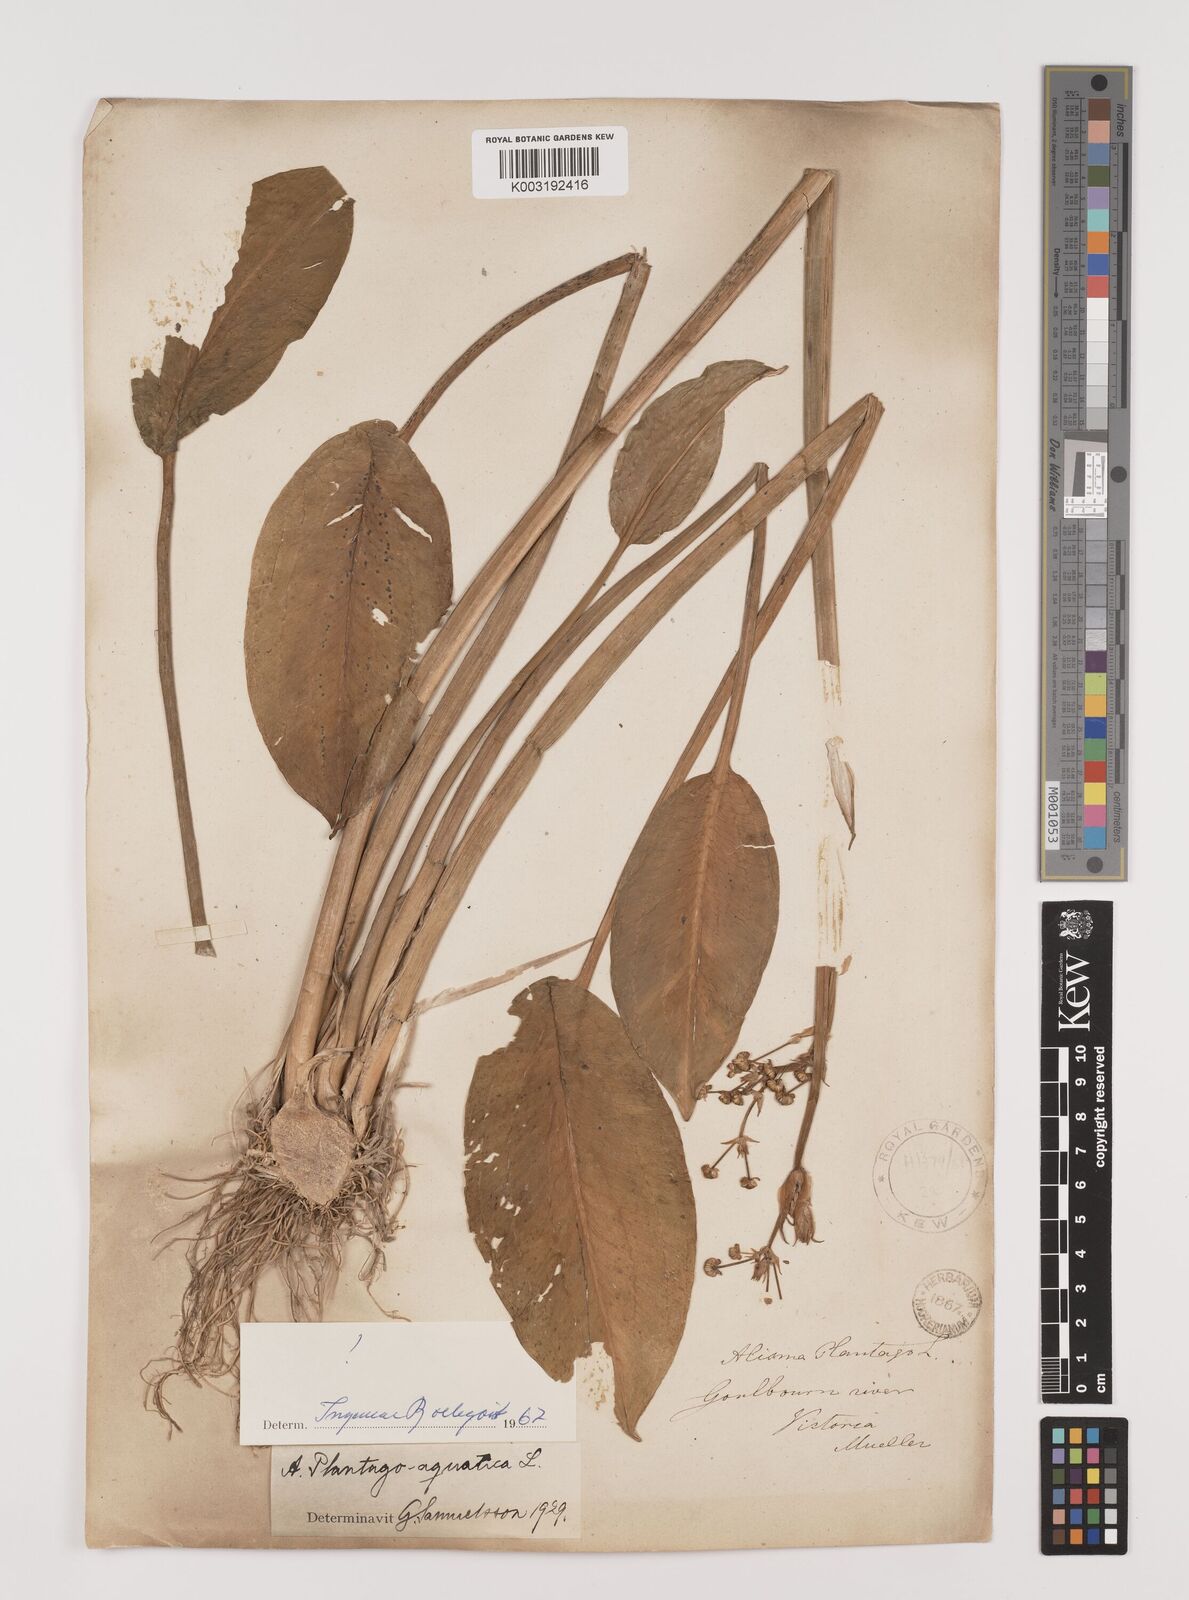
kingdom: Plantae
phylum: Tracheophyta
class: Liliopsida
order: Alismatales
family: Alismataceae
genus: Alisma
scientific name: Alisma plantago-aquatica
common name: Water-plantain
